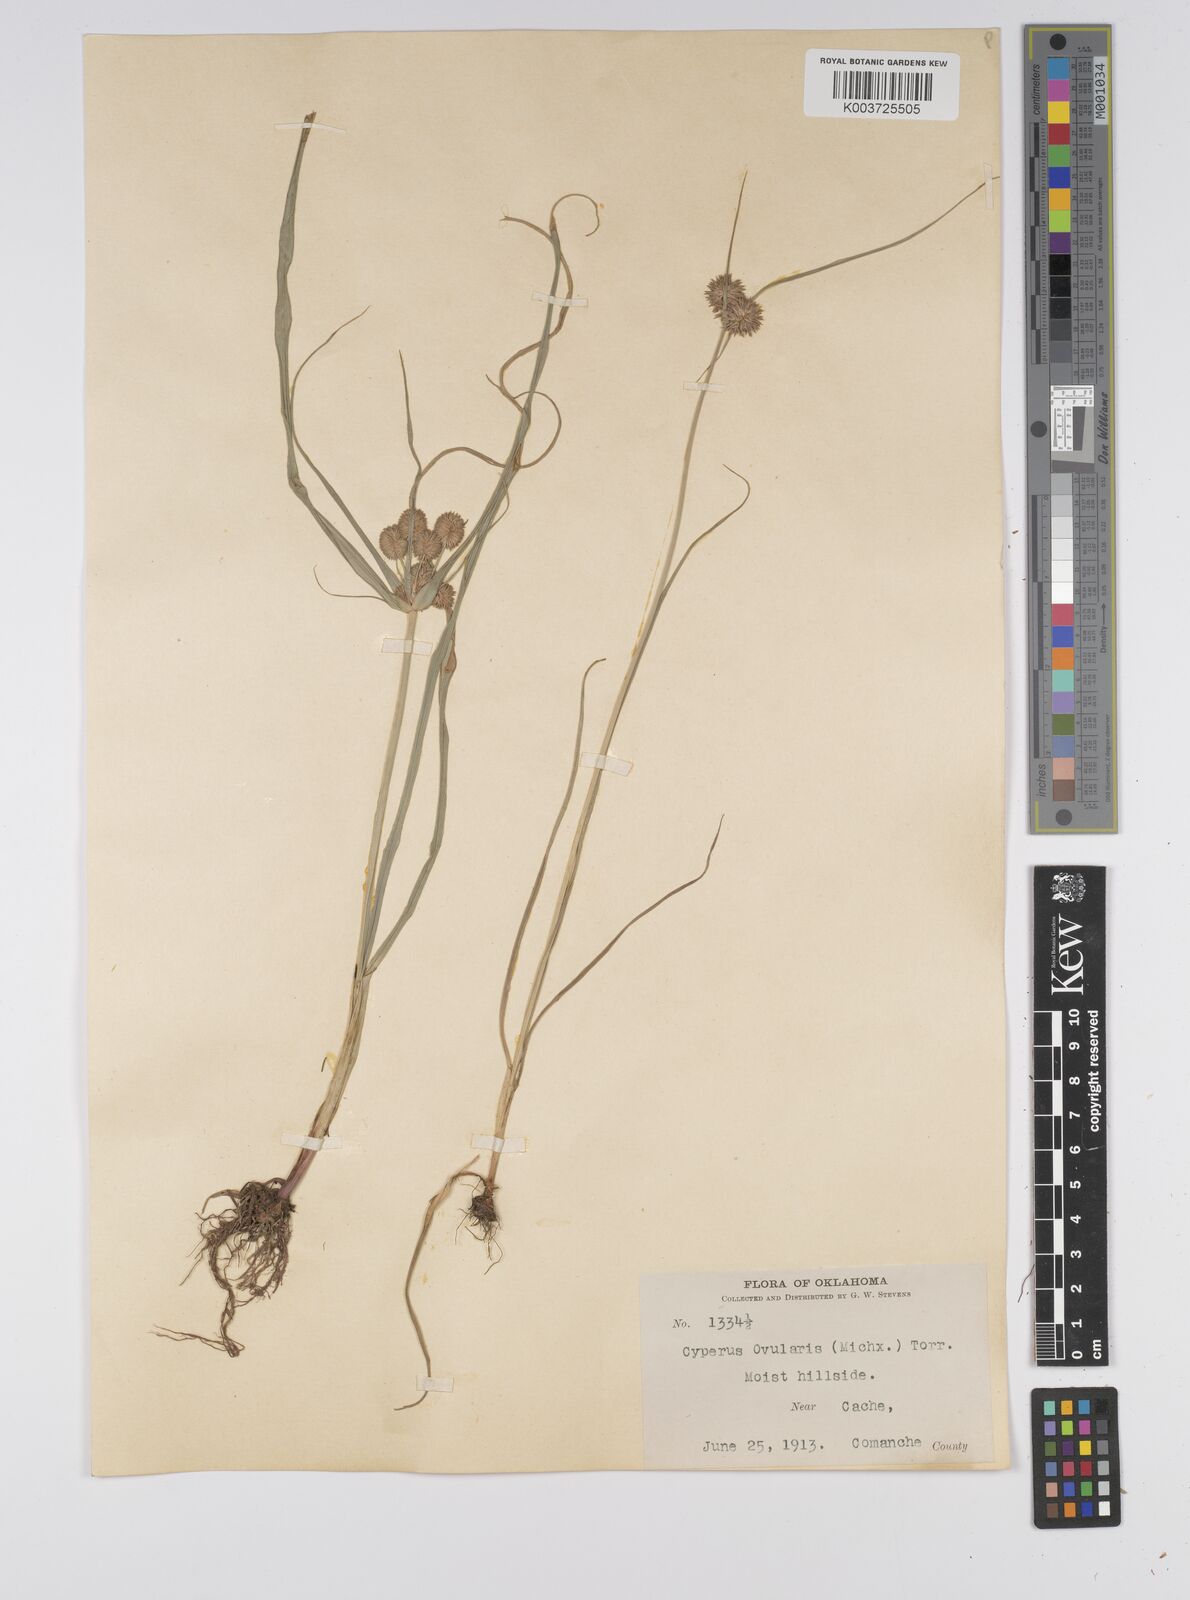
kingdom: Plantae
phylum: Tracheophyta
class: Liliopsida
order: Poales
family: Cyperaceae
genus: Cyperus
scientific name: Cyperus echinatus
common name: Teasel sedge
